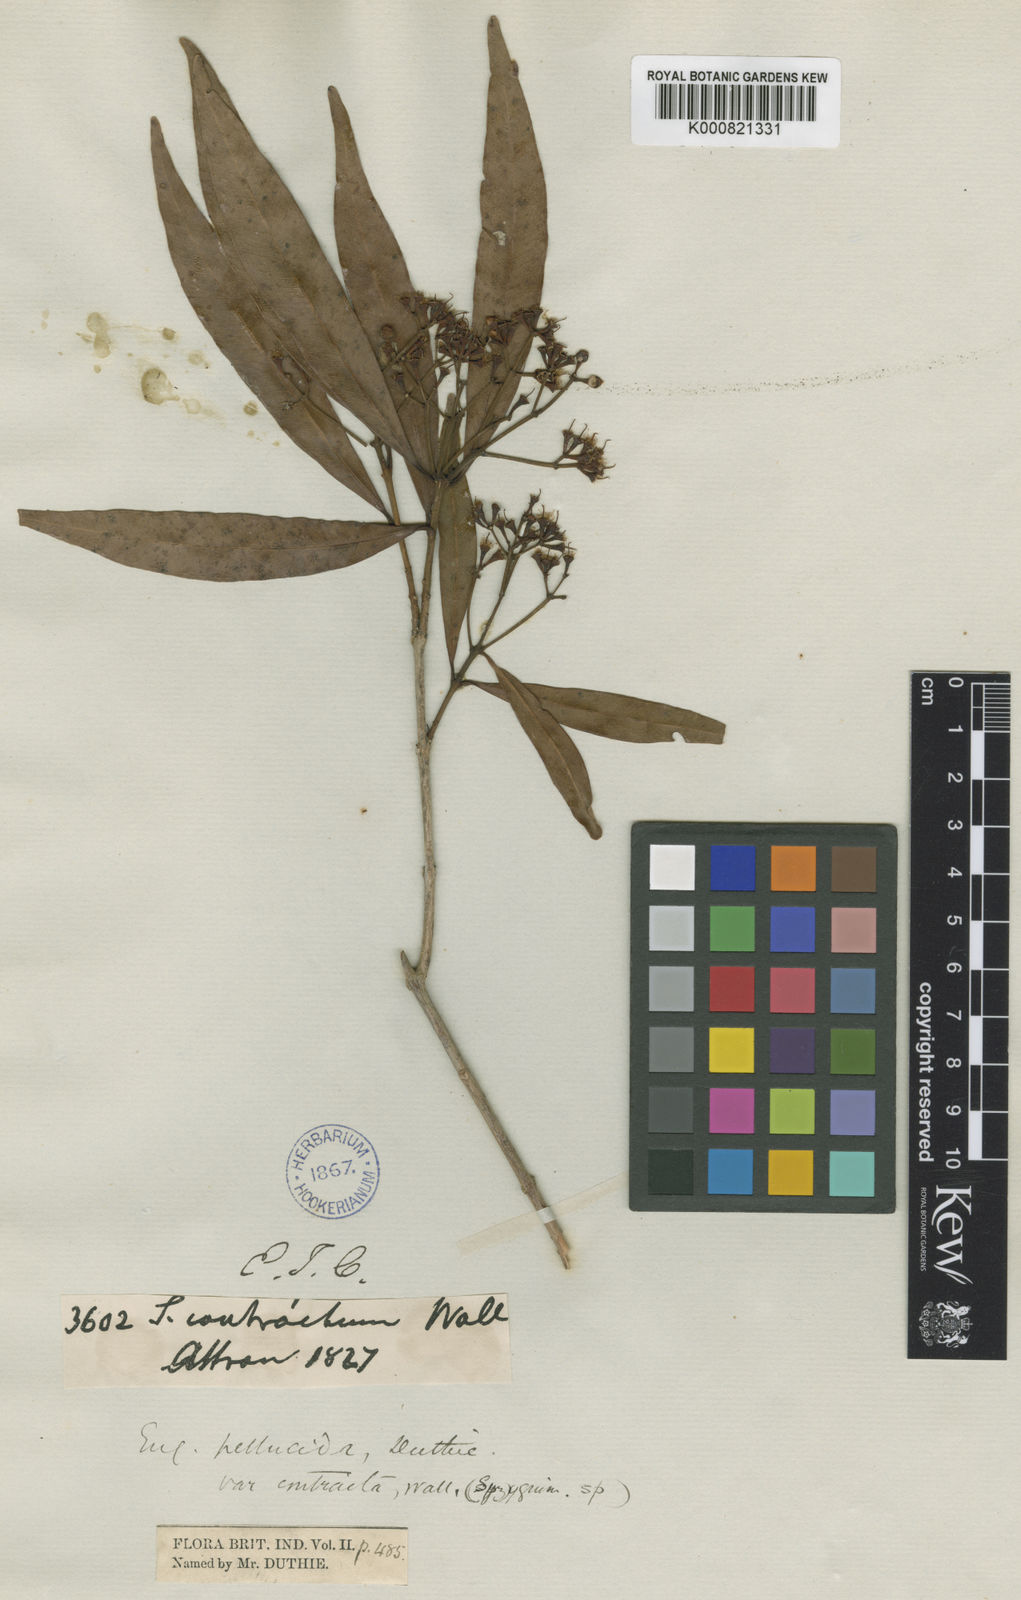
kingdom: Plantae
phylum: Tracheophyta
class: Magnoliopsida
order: Myrtales
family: Myrtaceae
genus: Syzygium
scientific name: Syzygium pellucidum
